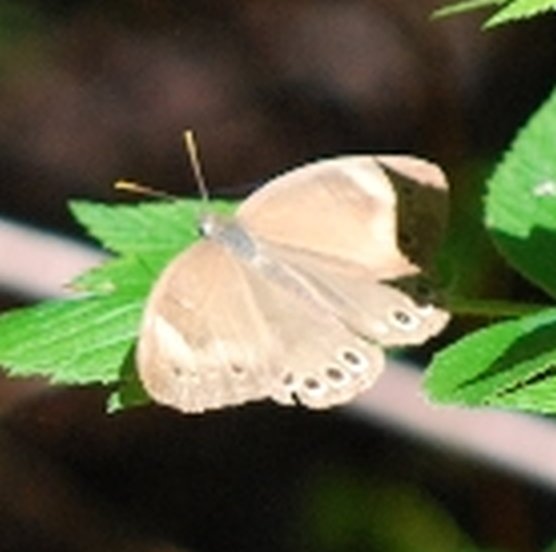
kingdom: Animalia
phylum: Arthropoda
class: Insecta
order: Lepidoptera
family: Nymphalidae
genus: Lethe
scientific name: Lethe eurydice
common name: Appalachian Eyed Brown
